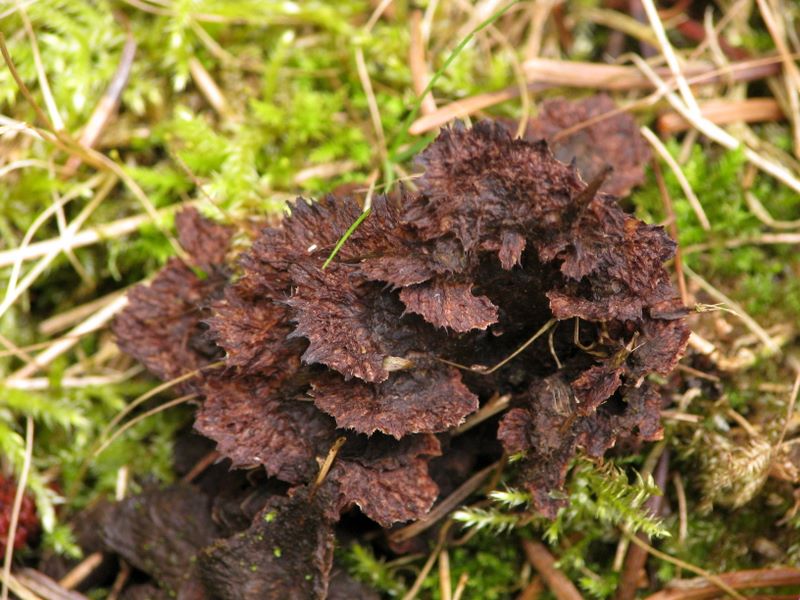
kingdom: Fungi
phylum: Basidiomycota
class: Agaricomycetes
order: Thelephorales
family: Thelephoraceae
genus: Thelephora
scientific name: Thelephora terrestris
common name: fliget frynsesvamp
